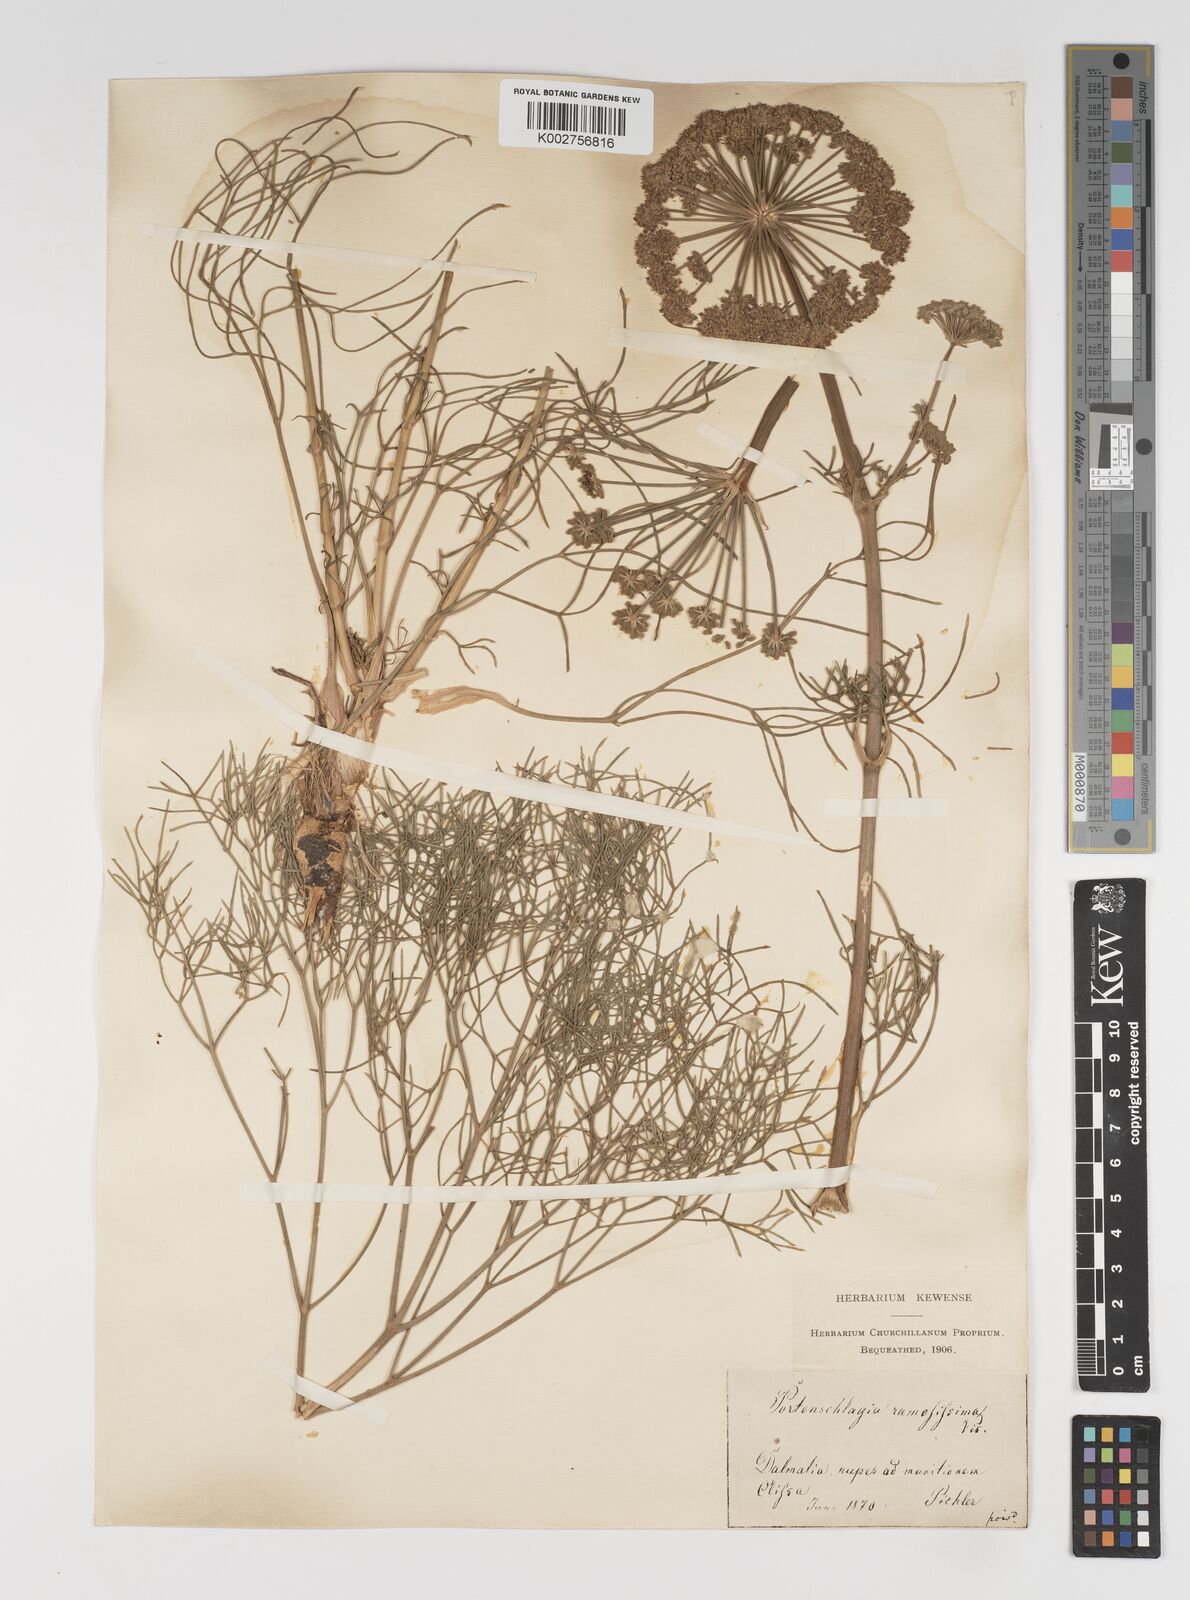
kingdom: Plantae
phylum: Tracheophyta
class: Magnoliopsida
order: Apiales
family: Apiaceae
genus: Athamanta
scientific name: Athamanta ramosissima
